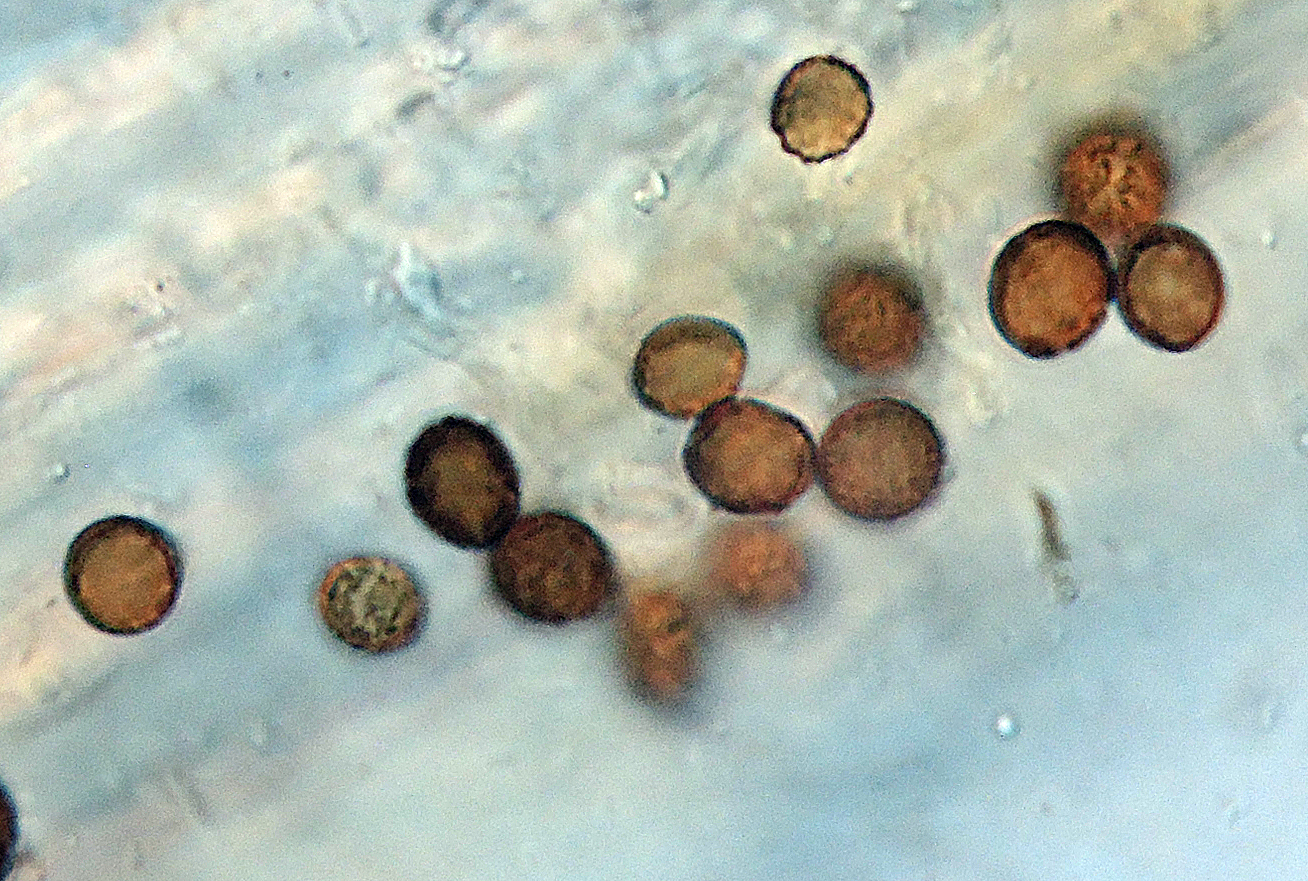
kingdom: Fungi
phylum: Ascomycota
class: Dothideomycetes
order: Pleosporales
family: Periconiaceae
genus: Periconia
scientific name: Periconia atra
